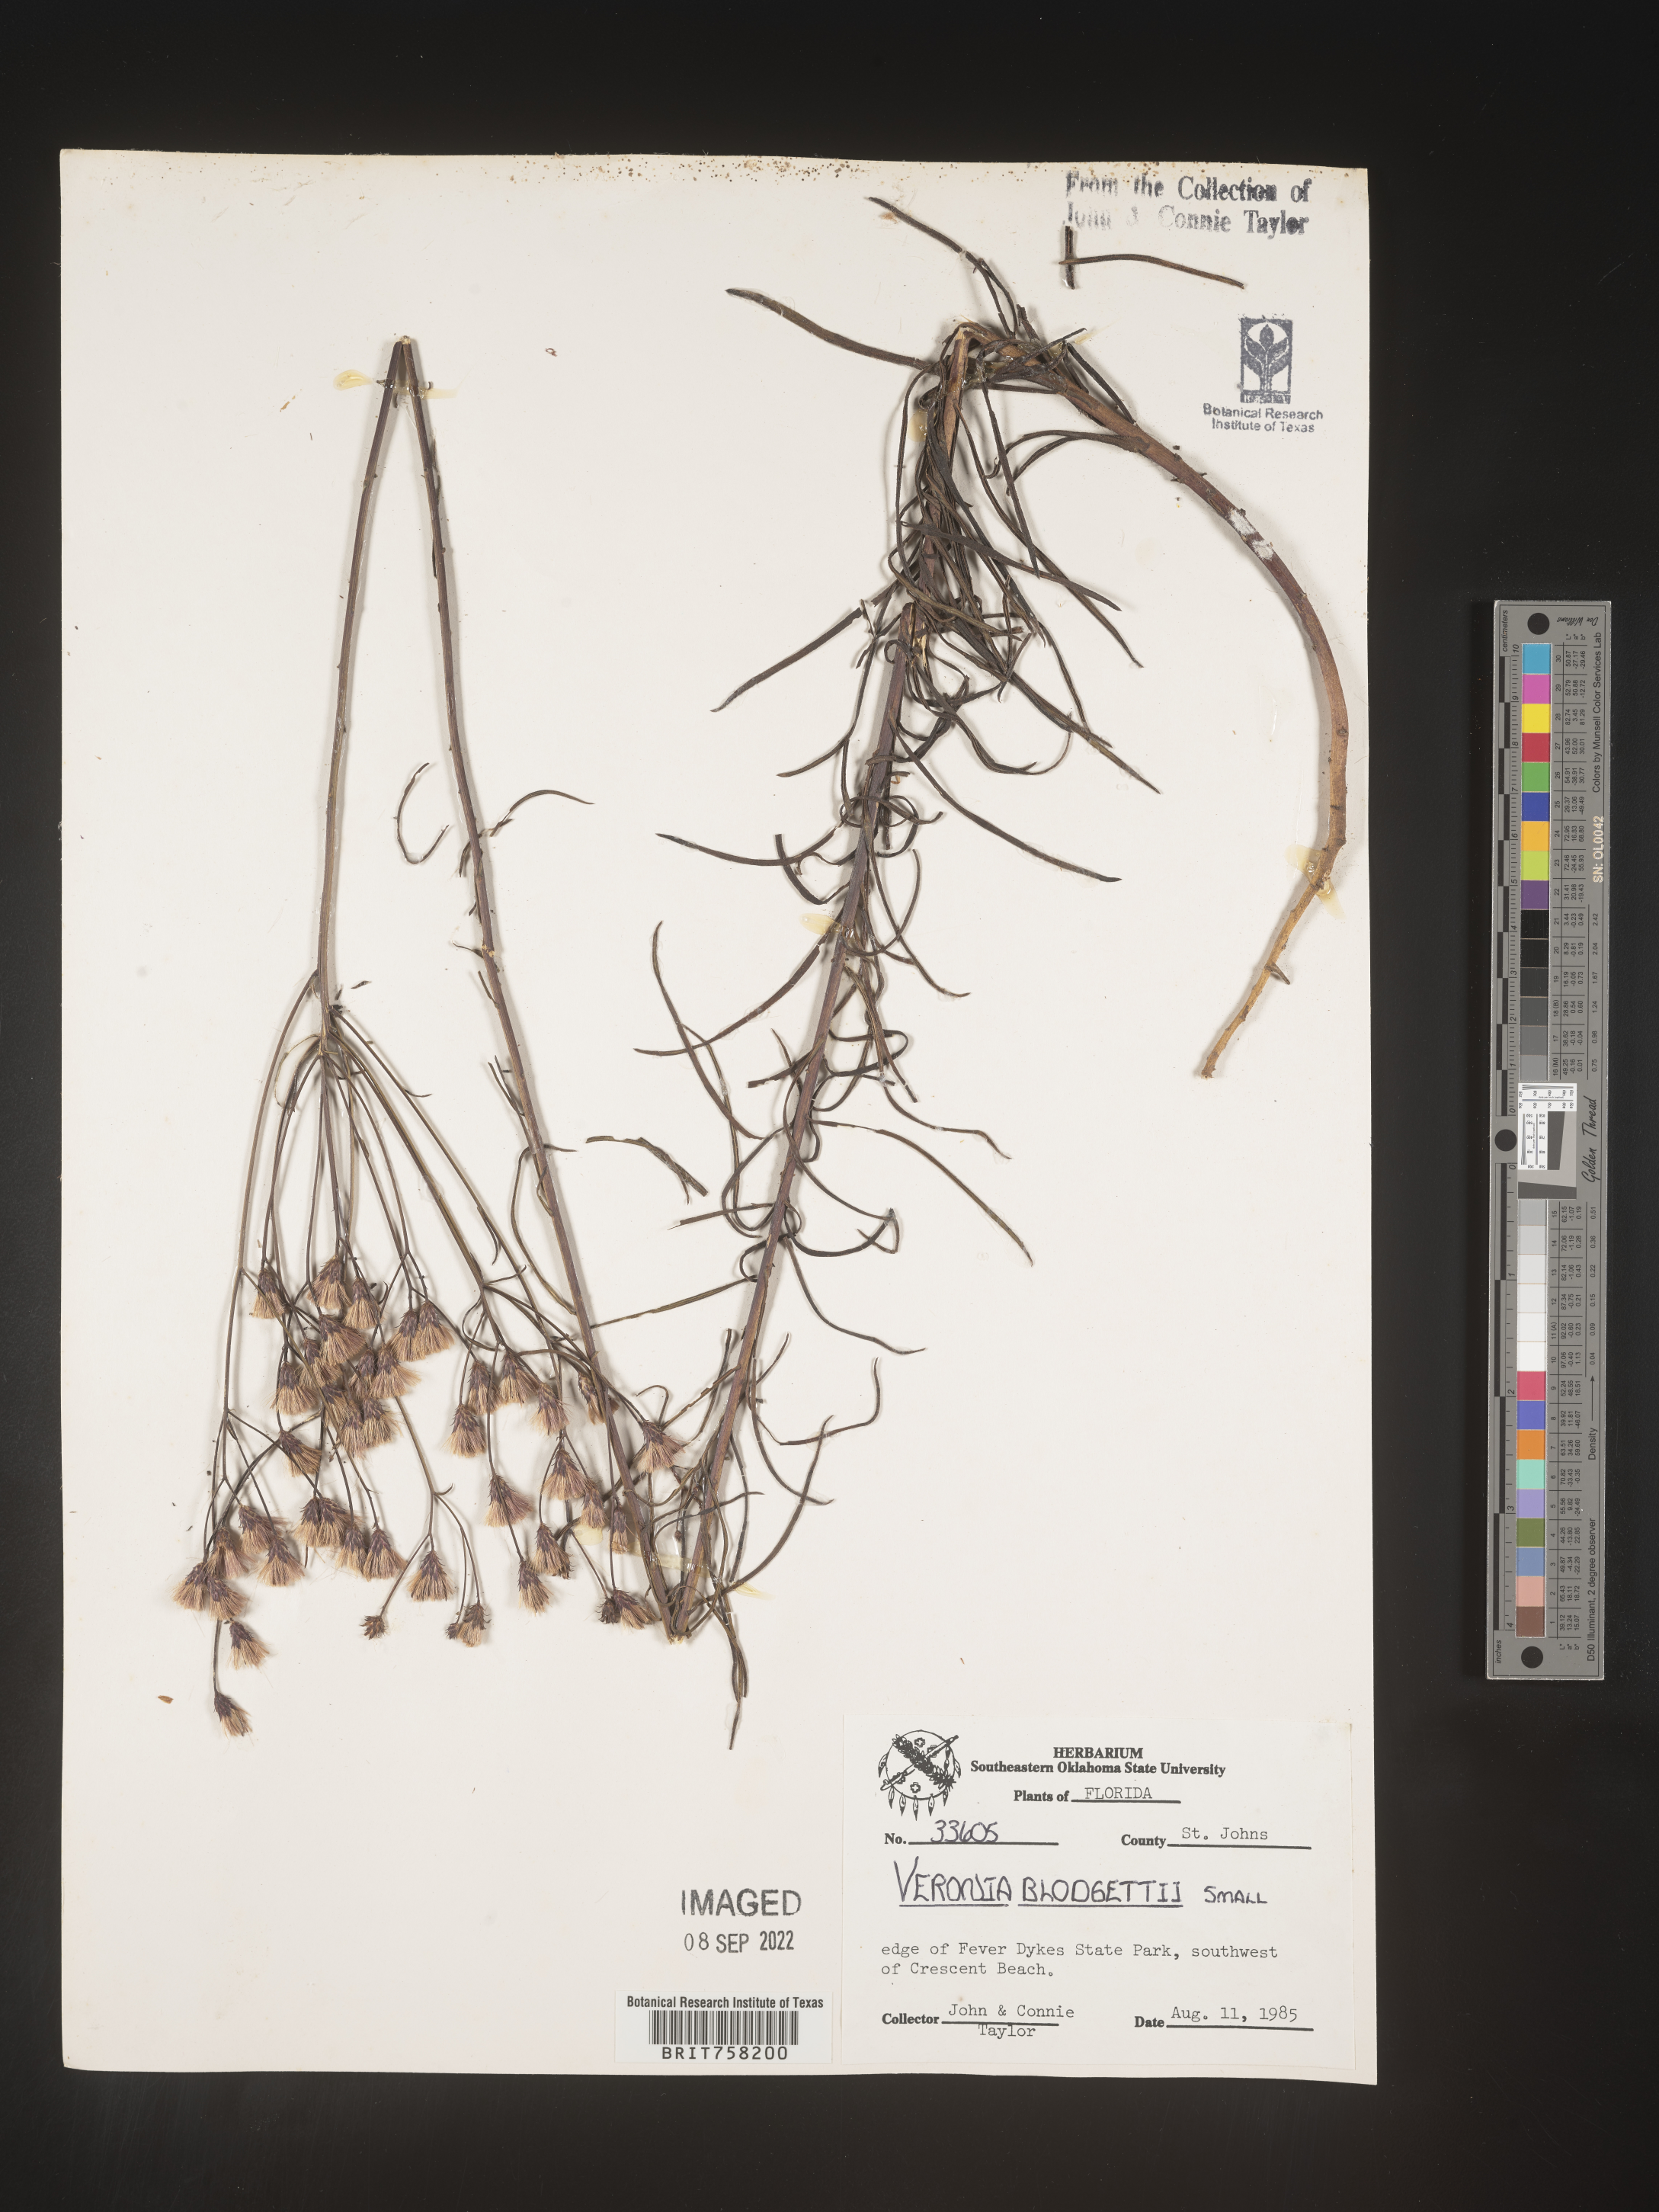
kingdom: Plantae
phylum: Tracheophyta
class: Magnoliopsida
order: Asterales
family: Asteraceae
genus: Vernonia
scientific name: Vernonia blodgettii
